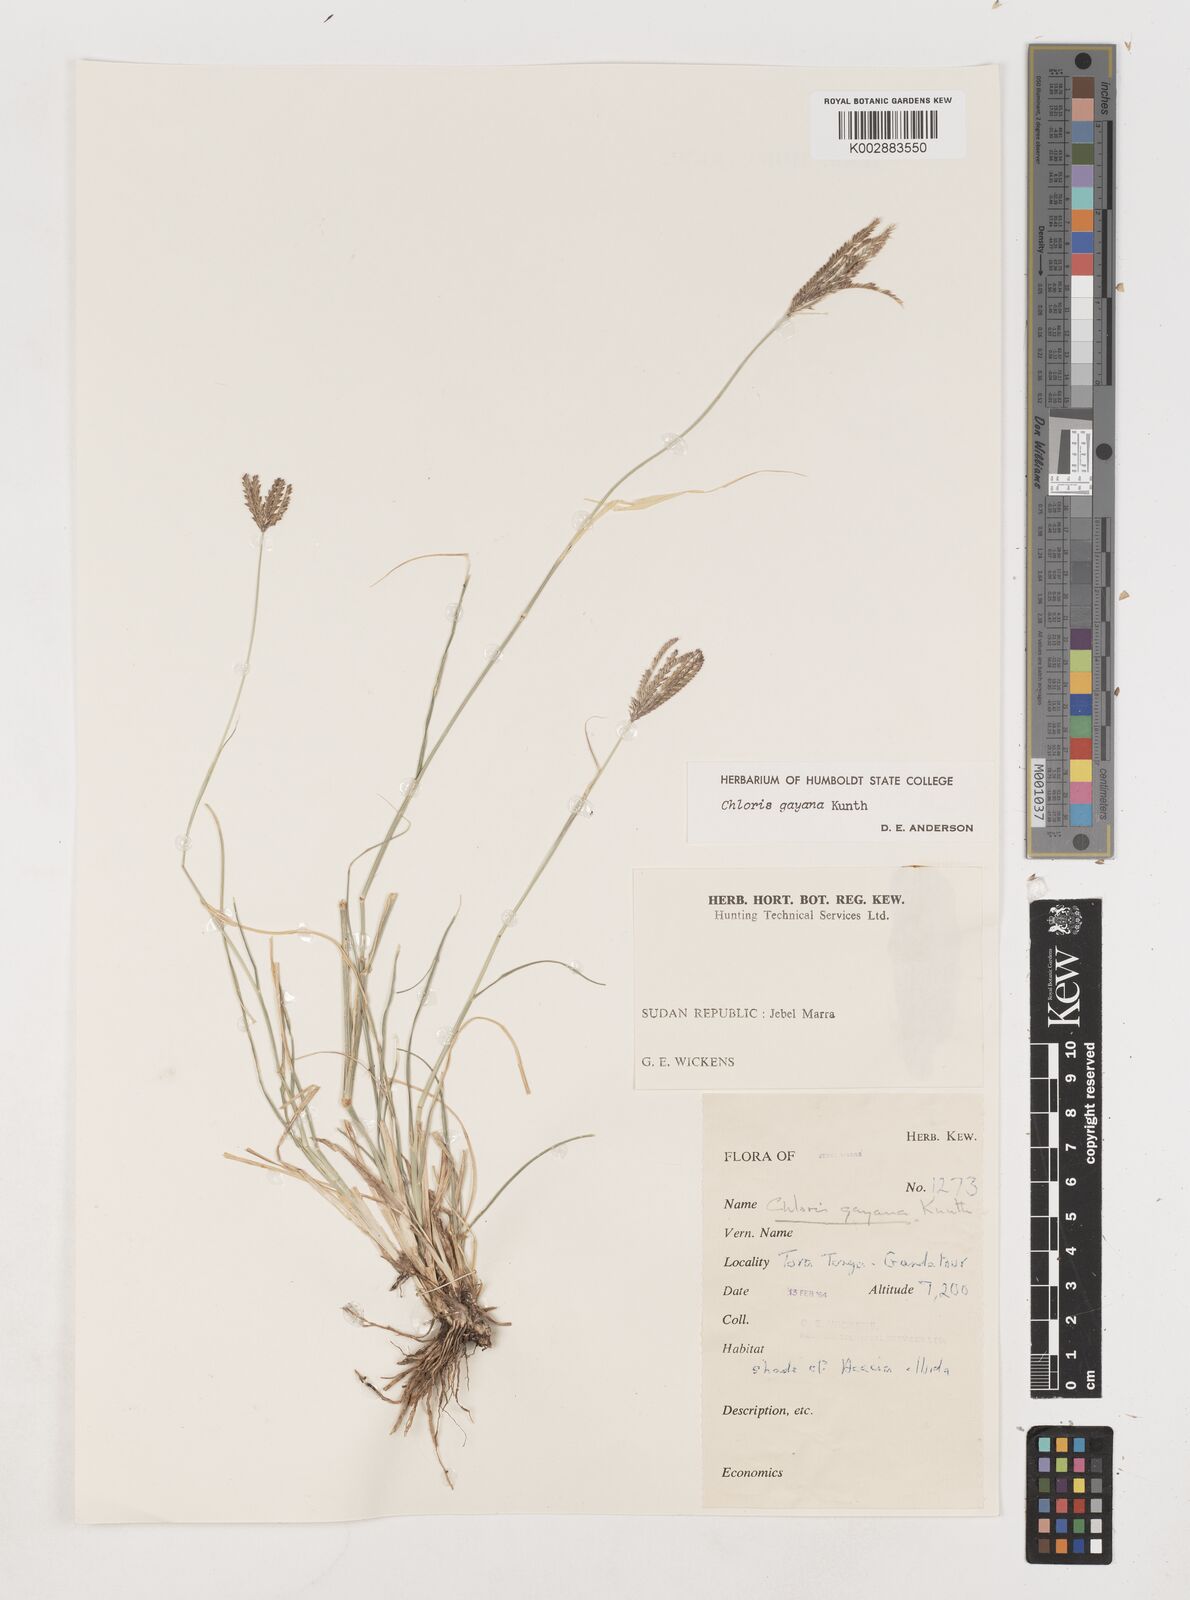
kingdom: Plantae
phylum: Tracheophyta
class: Liliopsida
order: Poales
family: Poaceae
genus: Chloris
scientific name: Chloris gayana
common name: Rhodes grass
